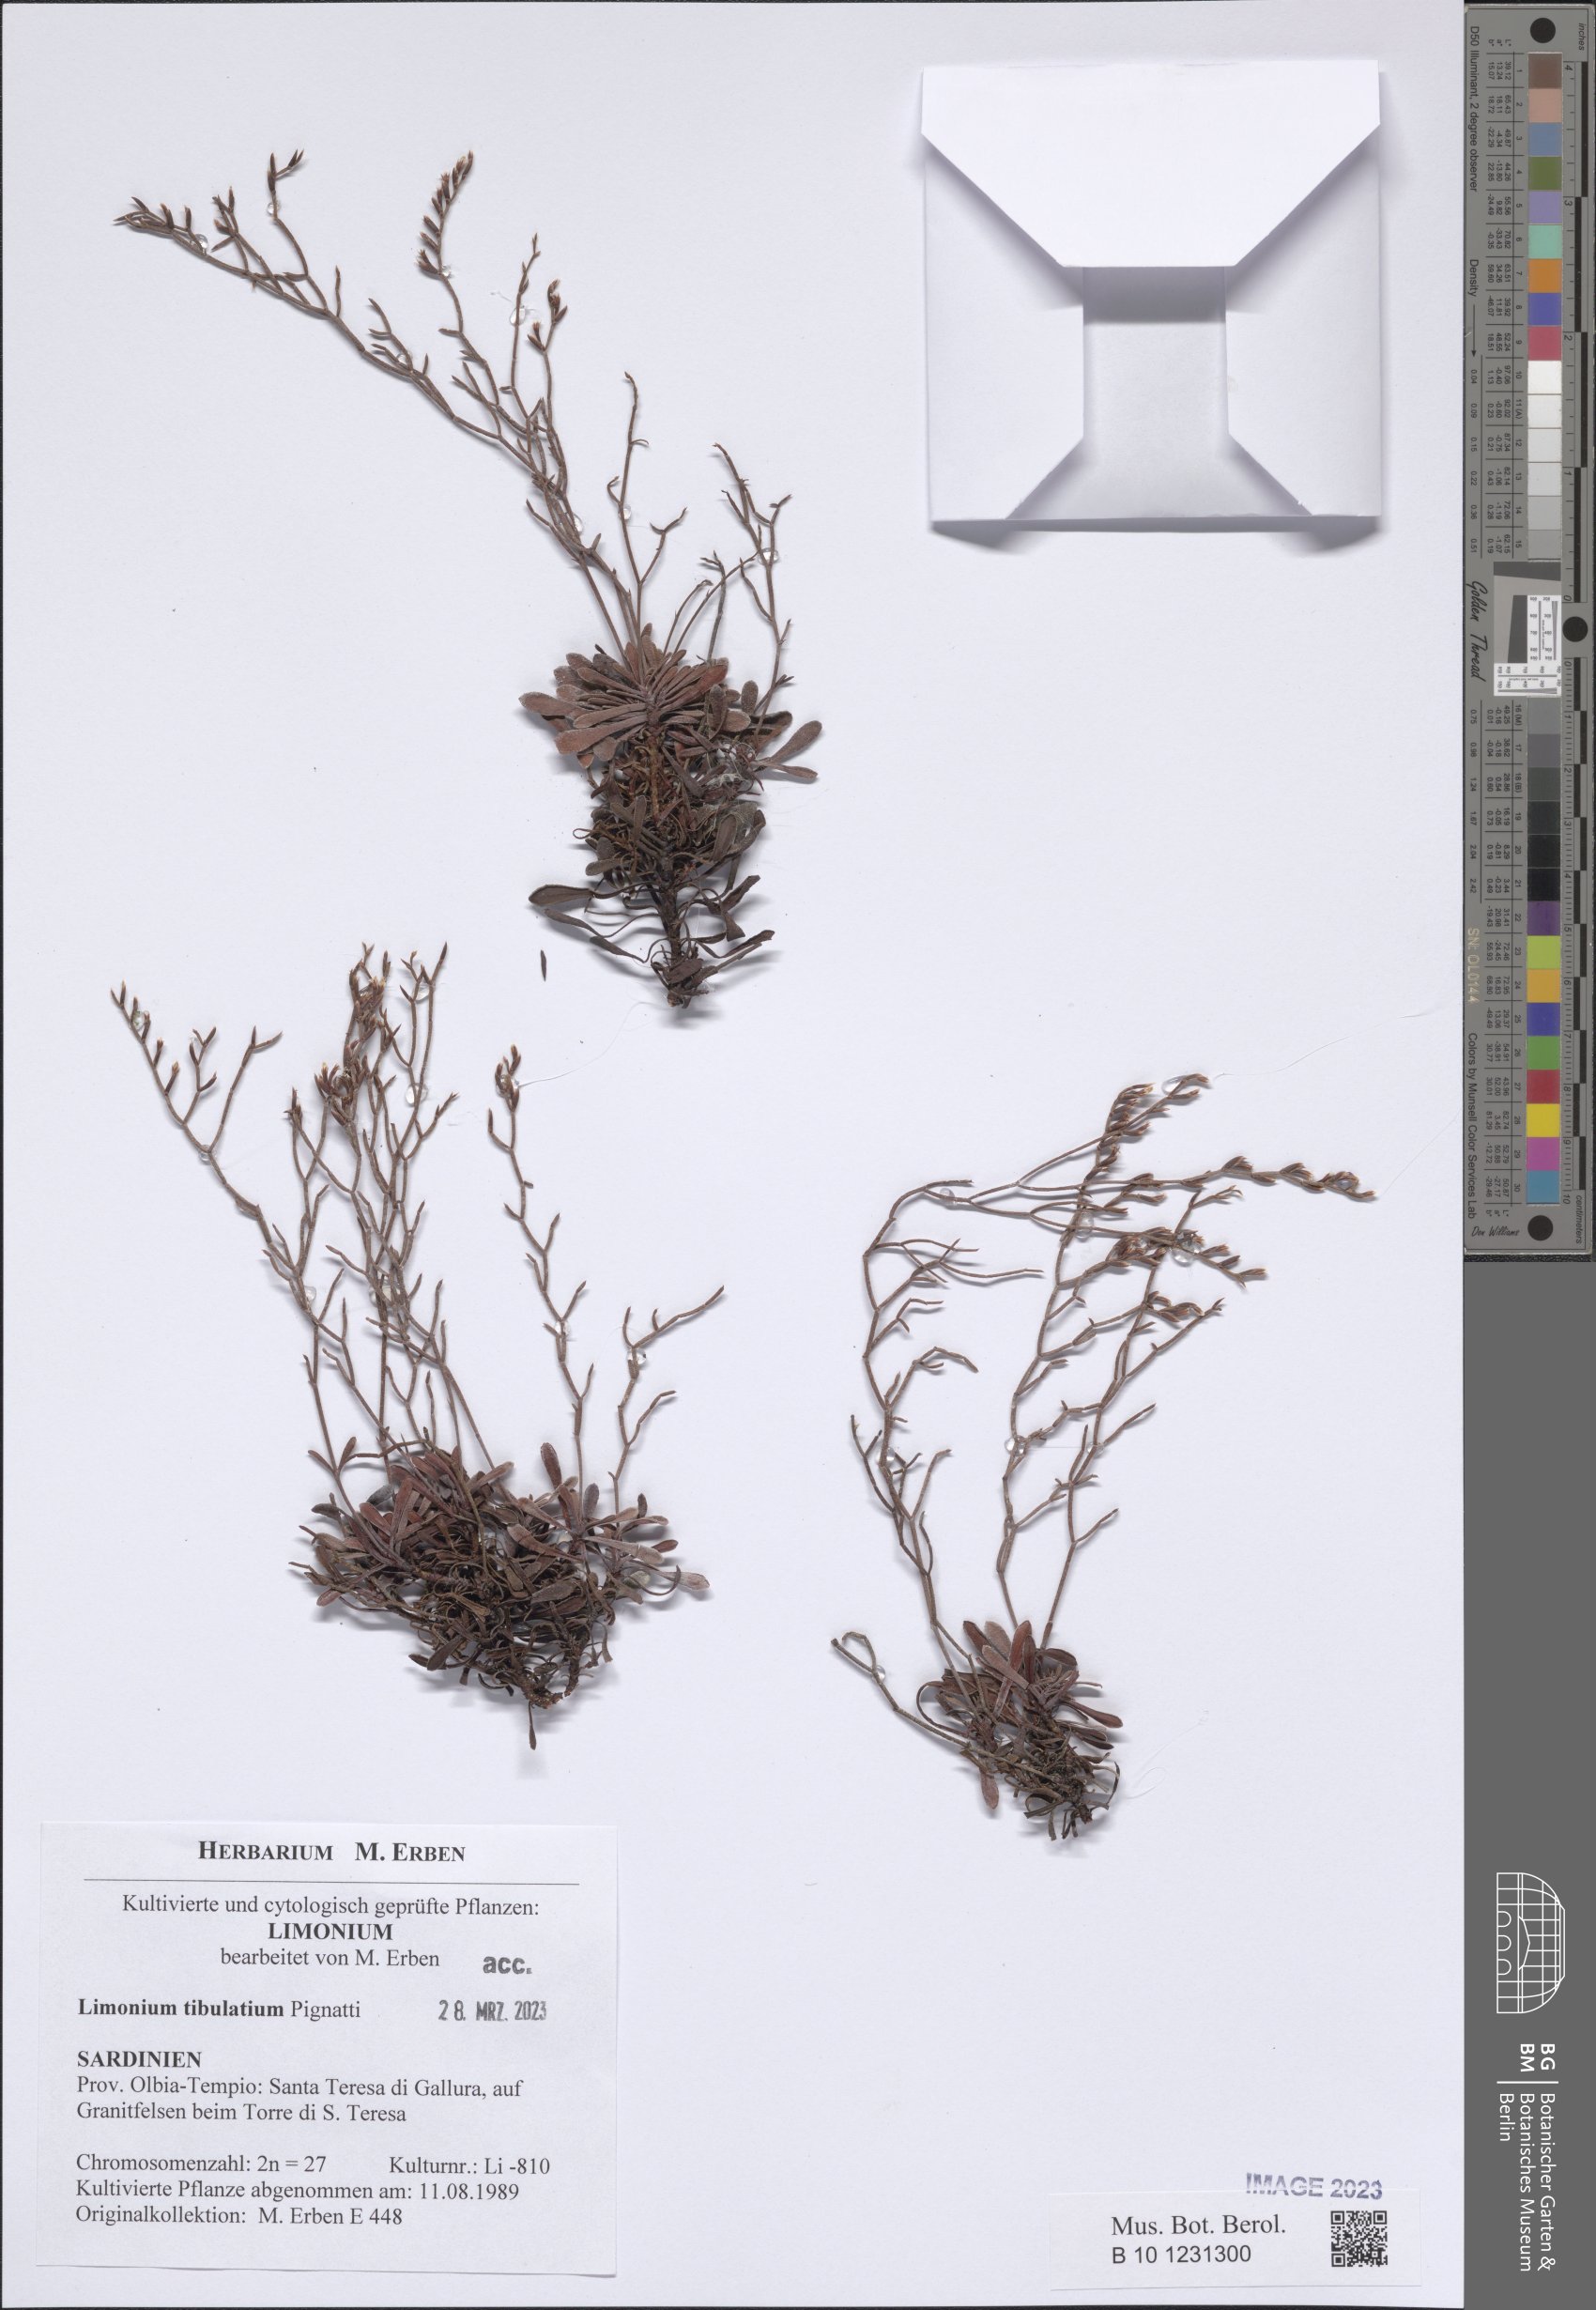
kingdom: Plantae
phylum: Tracheophyta
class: Magnoliopsida
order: Caryophyllales
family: Plumbaginaceae
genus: Limonium
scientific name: Limonium tibulatium
